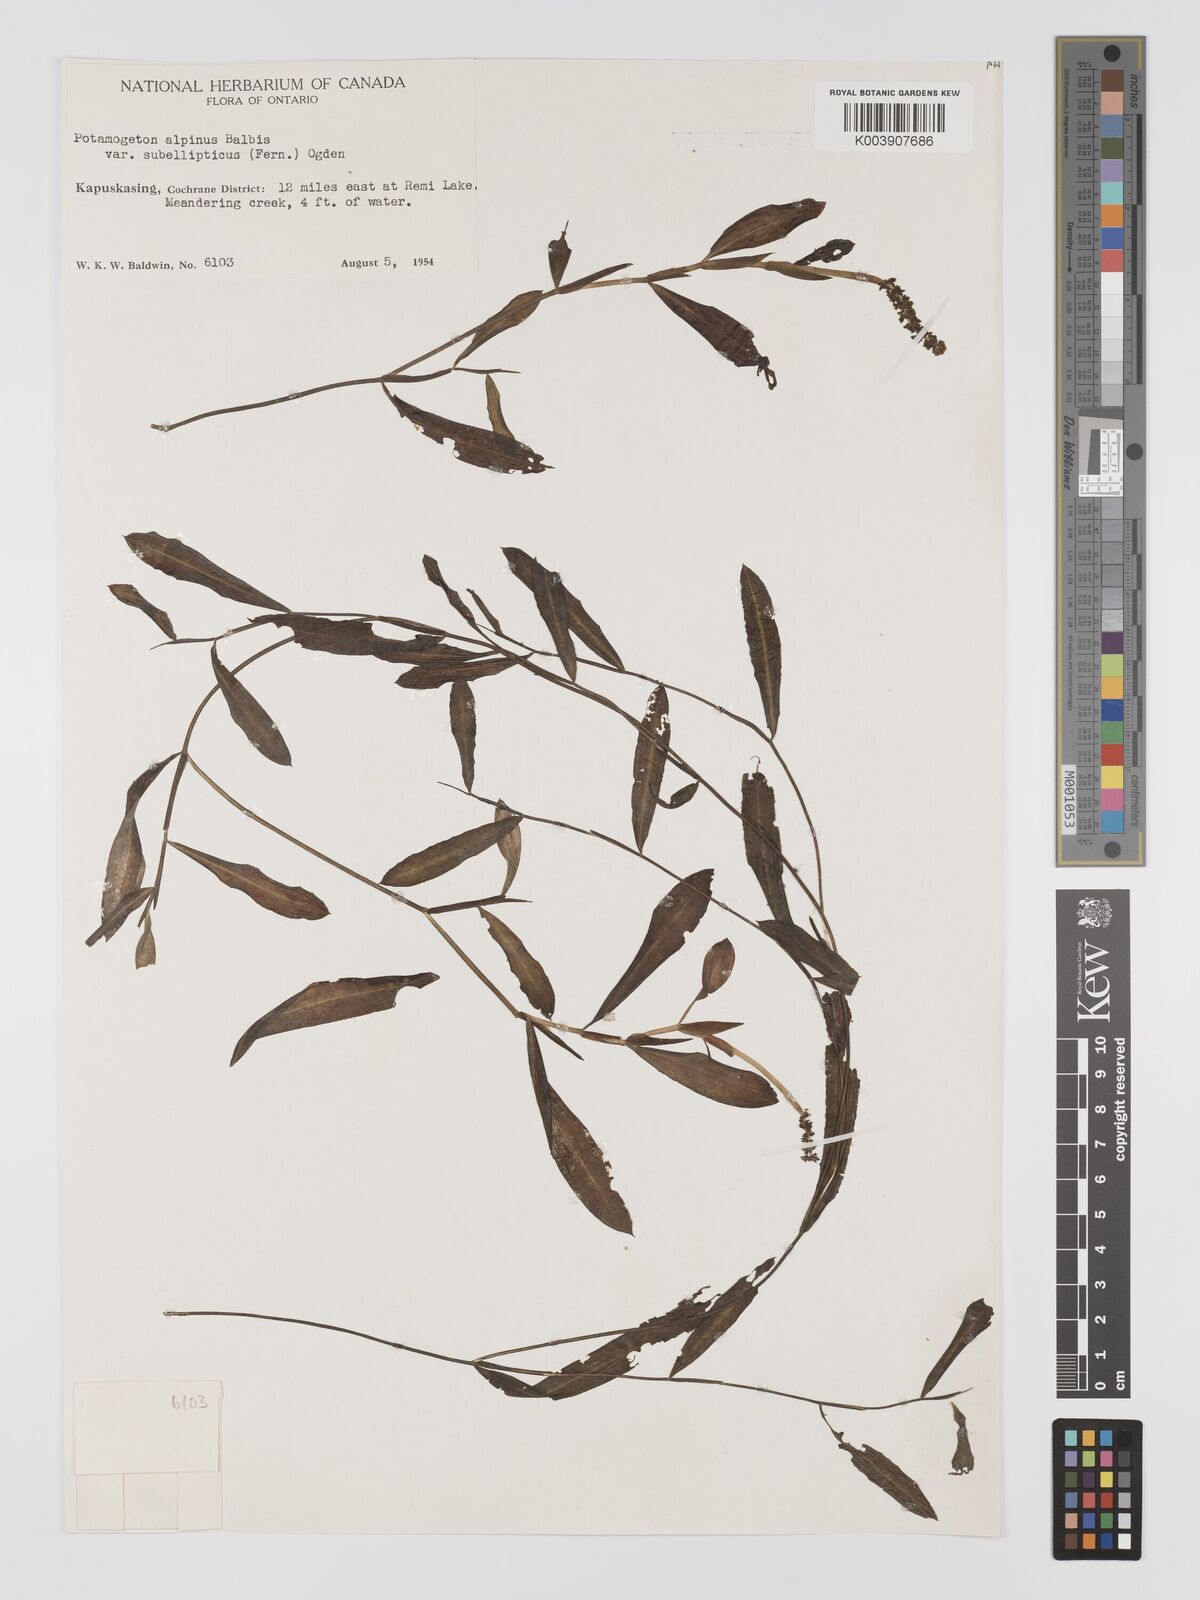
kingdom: Plantae
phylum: Tracheophyta
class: Liliopsida
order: Alismatales
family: Potamogetonaceae
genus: Potamogeton
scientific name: Potamogeton alpinus
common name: Red pondweed
